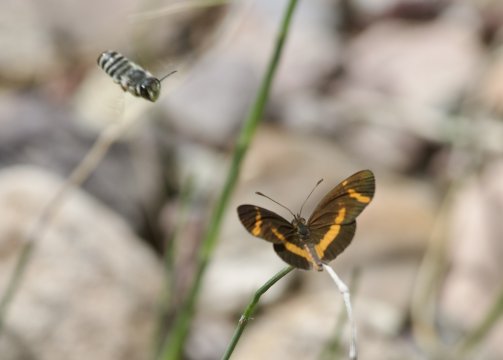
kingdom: Animalia
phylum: Arthropoda
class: Insecta
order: Lepidoptera
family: Nymphalidae
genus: Microtia
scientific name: Microtia elva
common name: Elf
